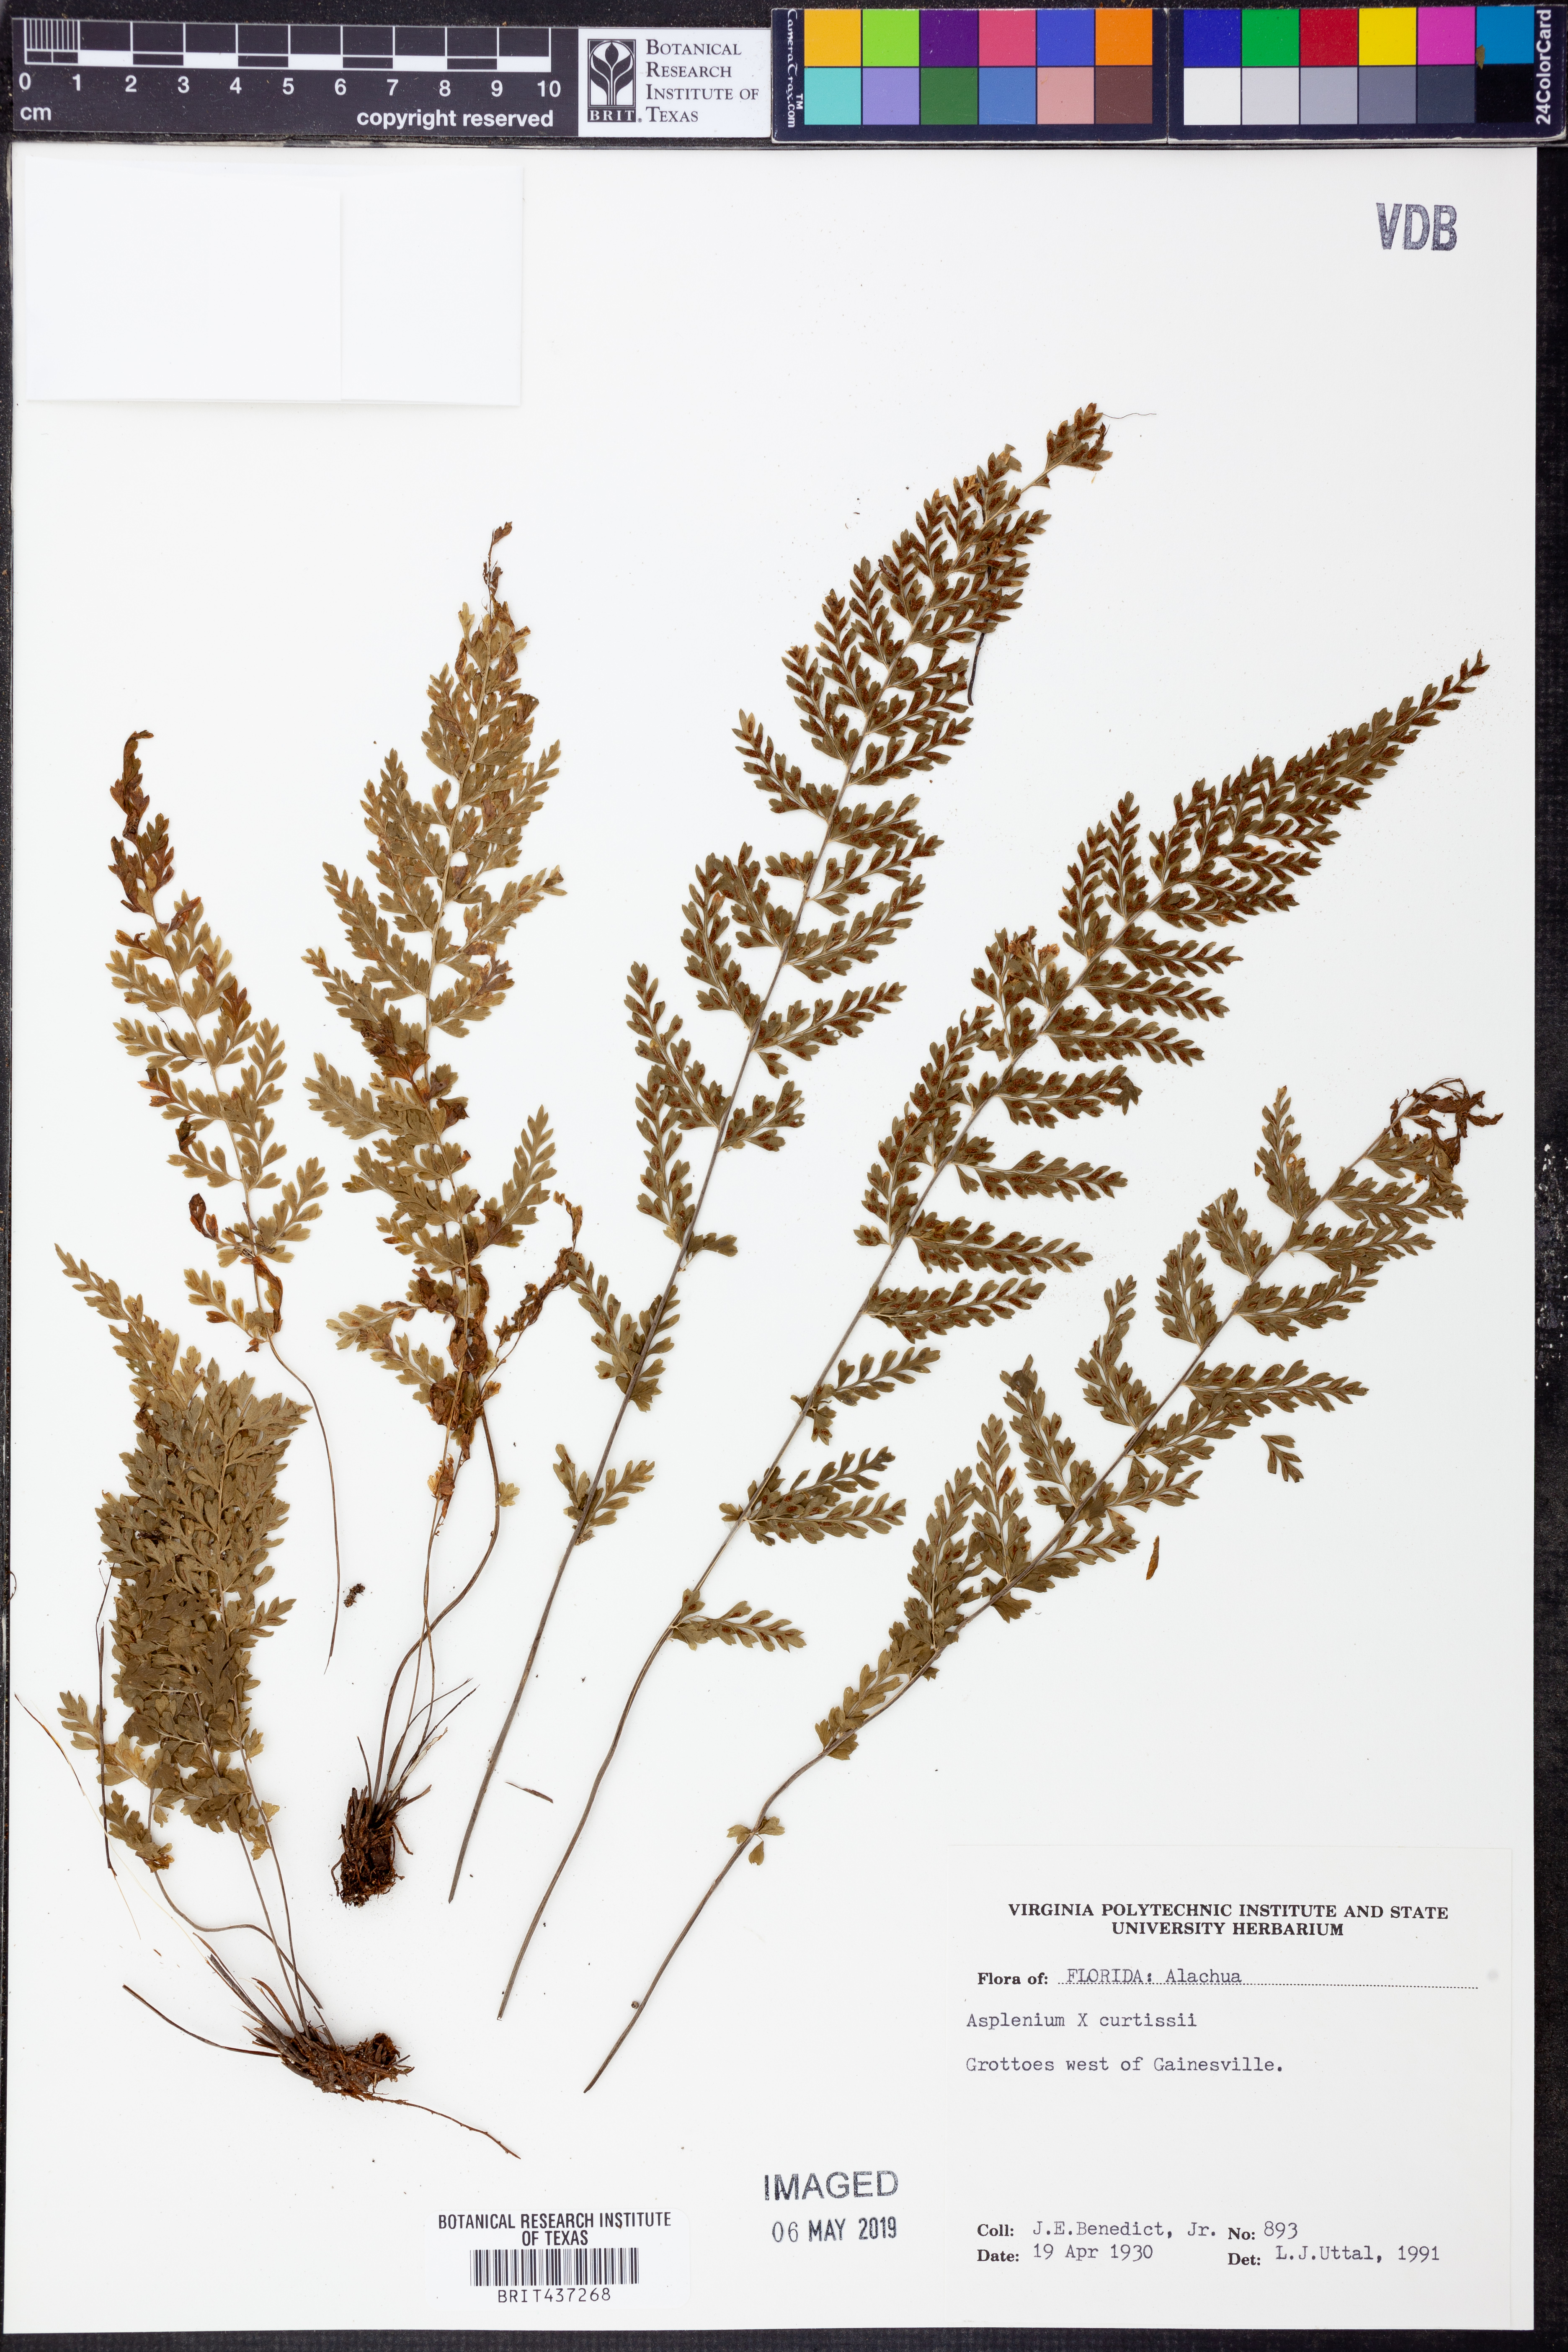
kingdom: Plantae
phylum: Tracheophyta
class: Polypodiopsida
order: Polypodiales
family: Aspleniaceae
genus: Asplenium
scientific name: Asplenium
